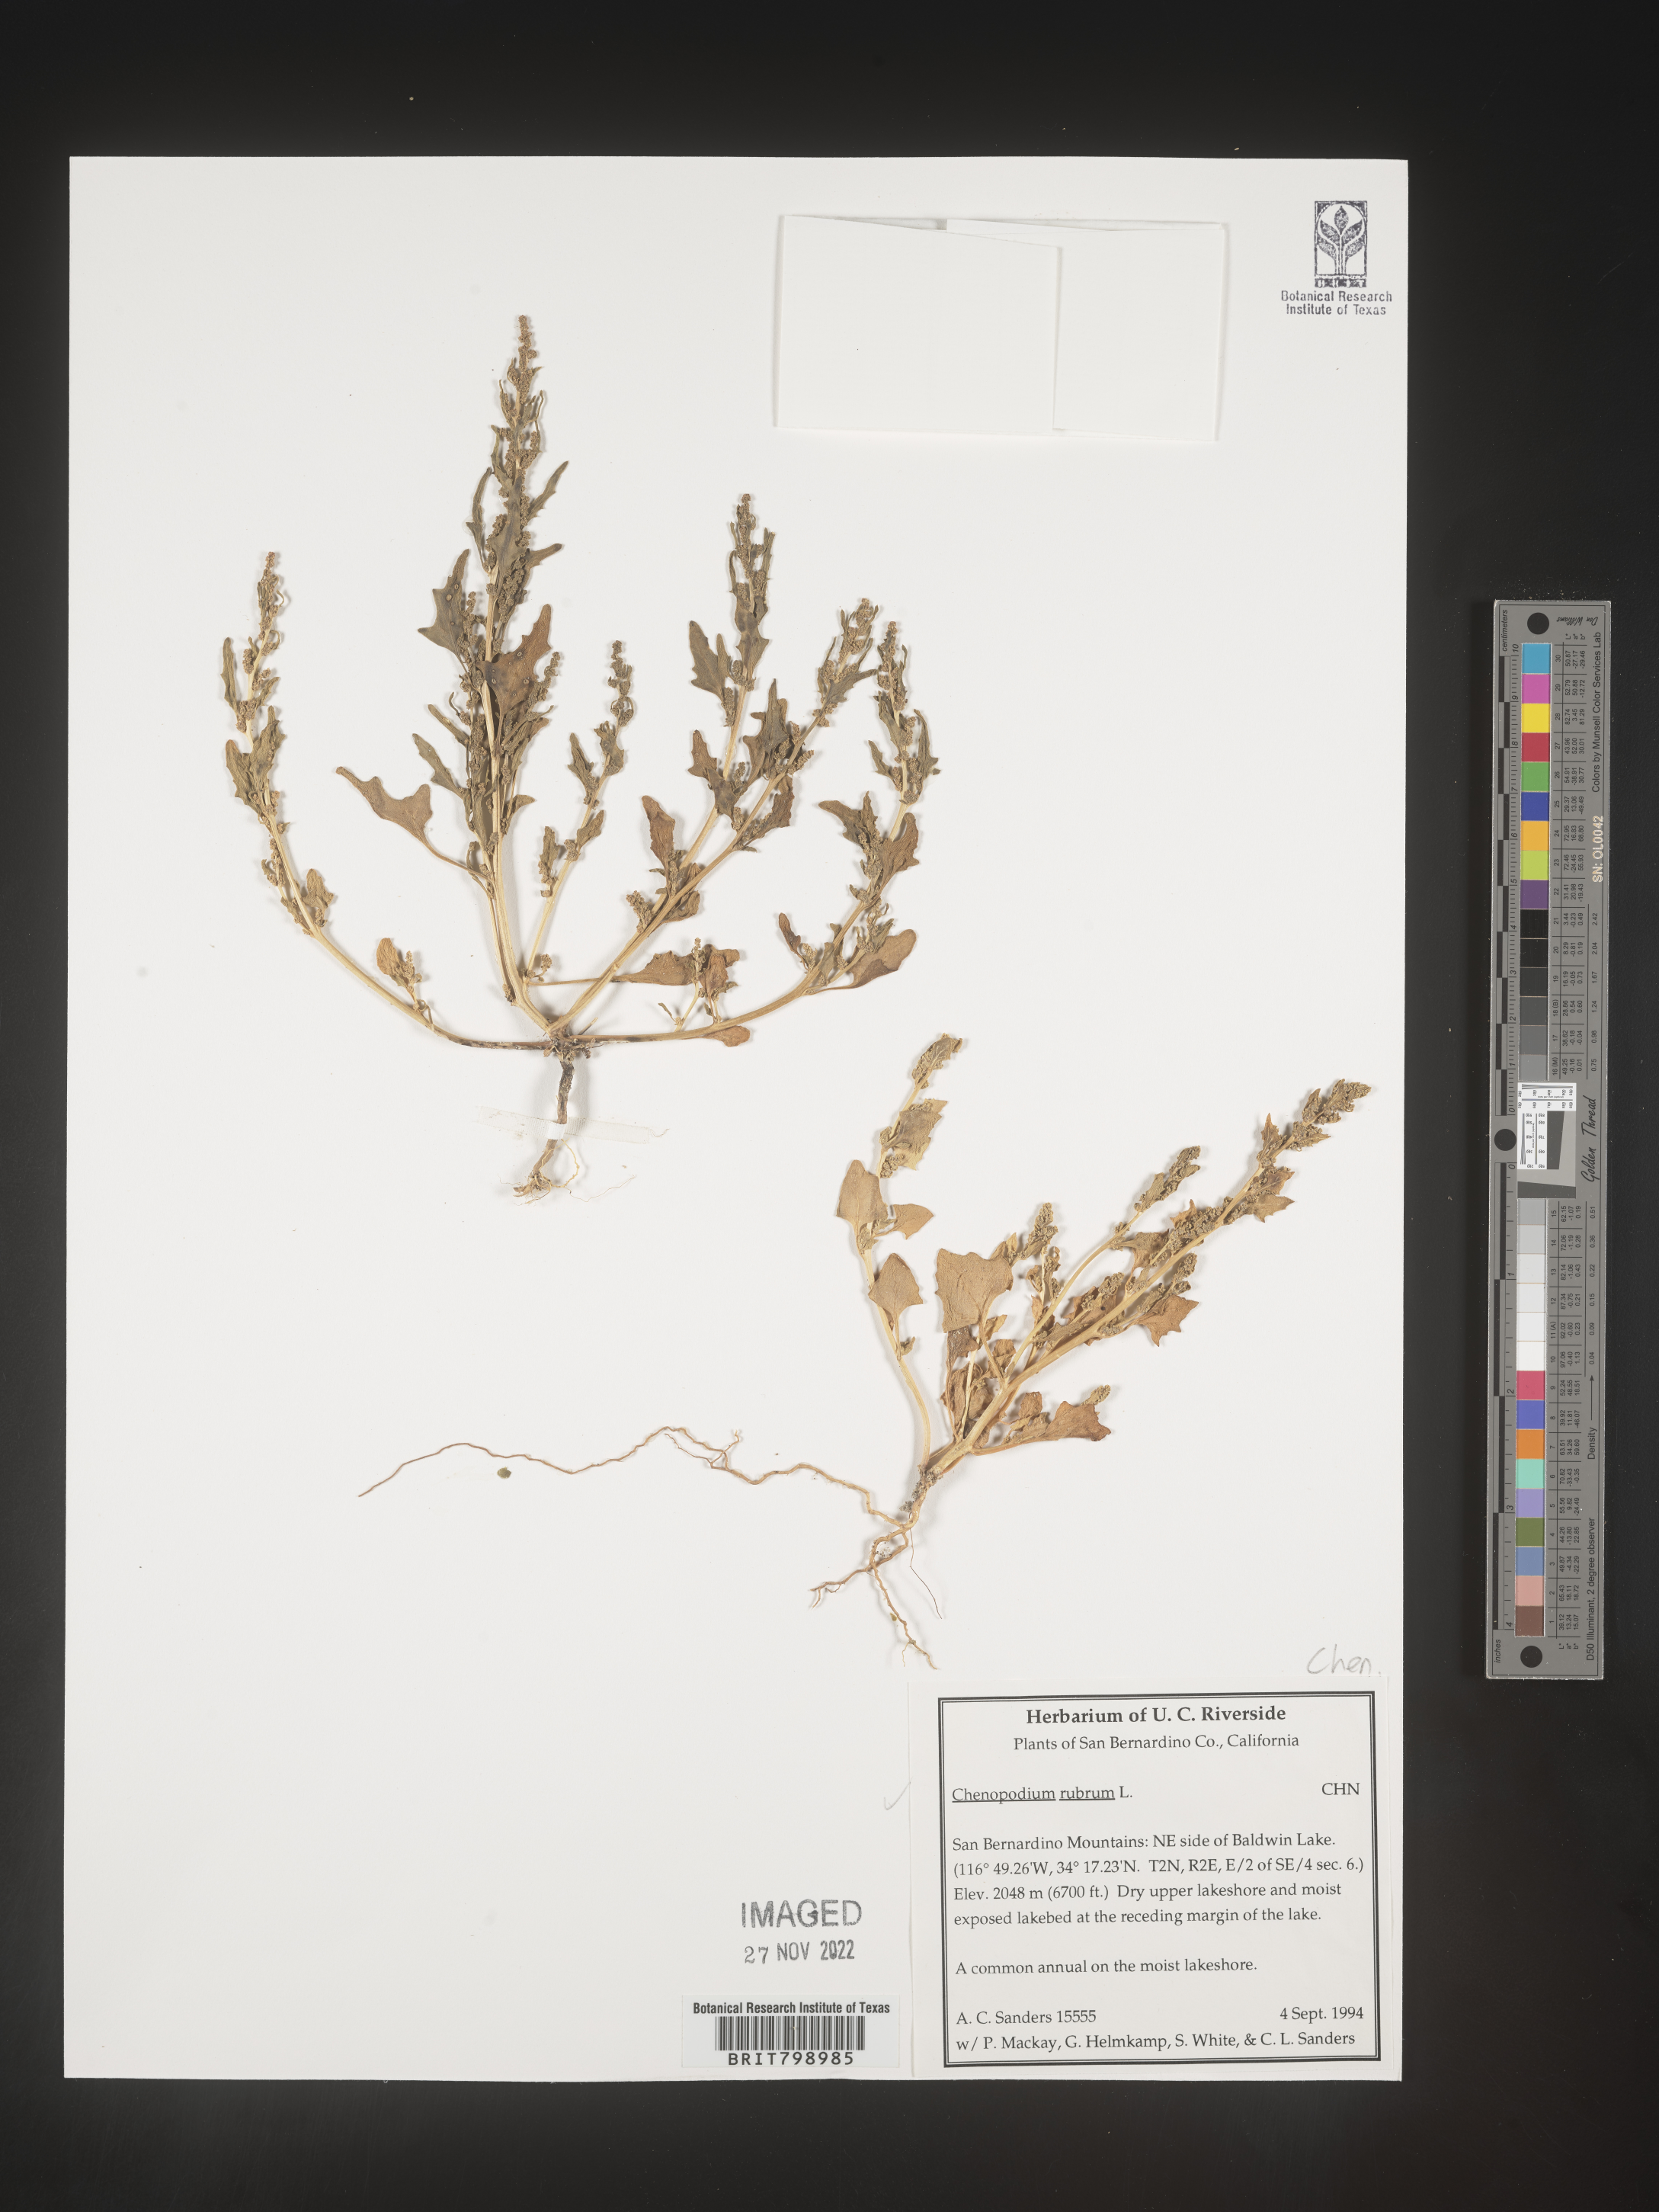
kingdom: Plantae
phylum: Tracheophyta
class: Magnoliopsida
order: Caryophyllales
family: Amaranthaceae
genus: Oxybasis
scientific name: Oxybasis rubra
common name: Red goosefoot
